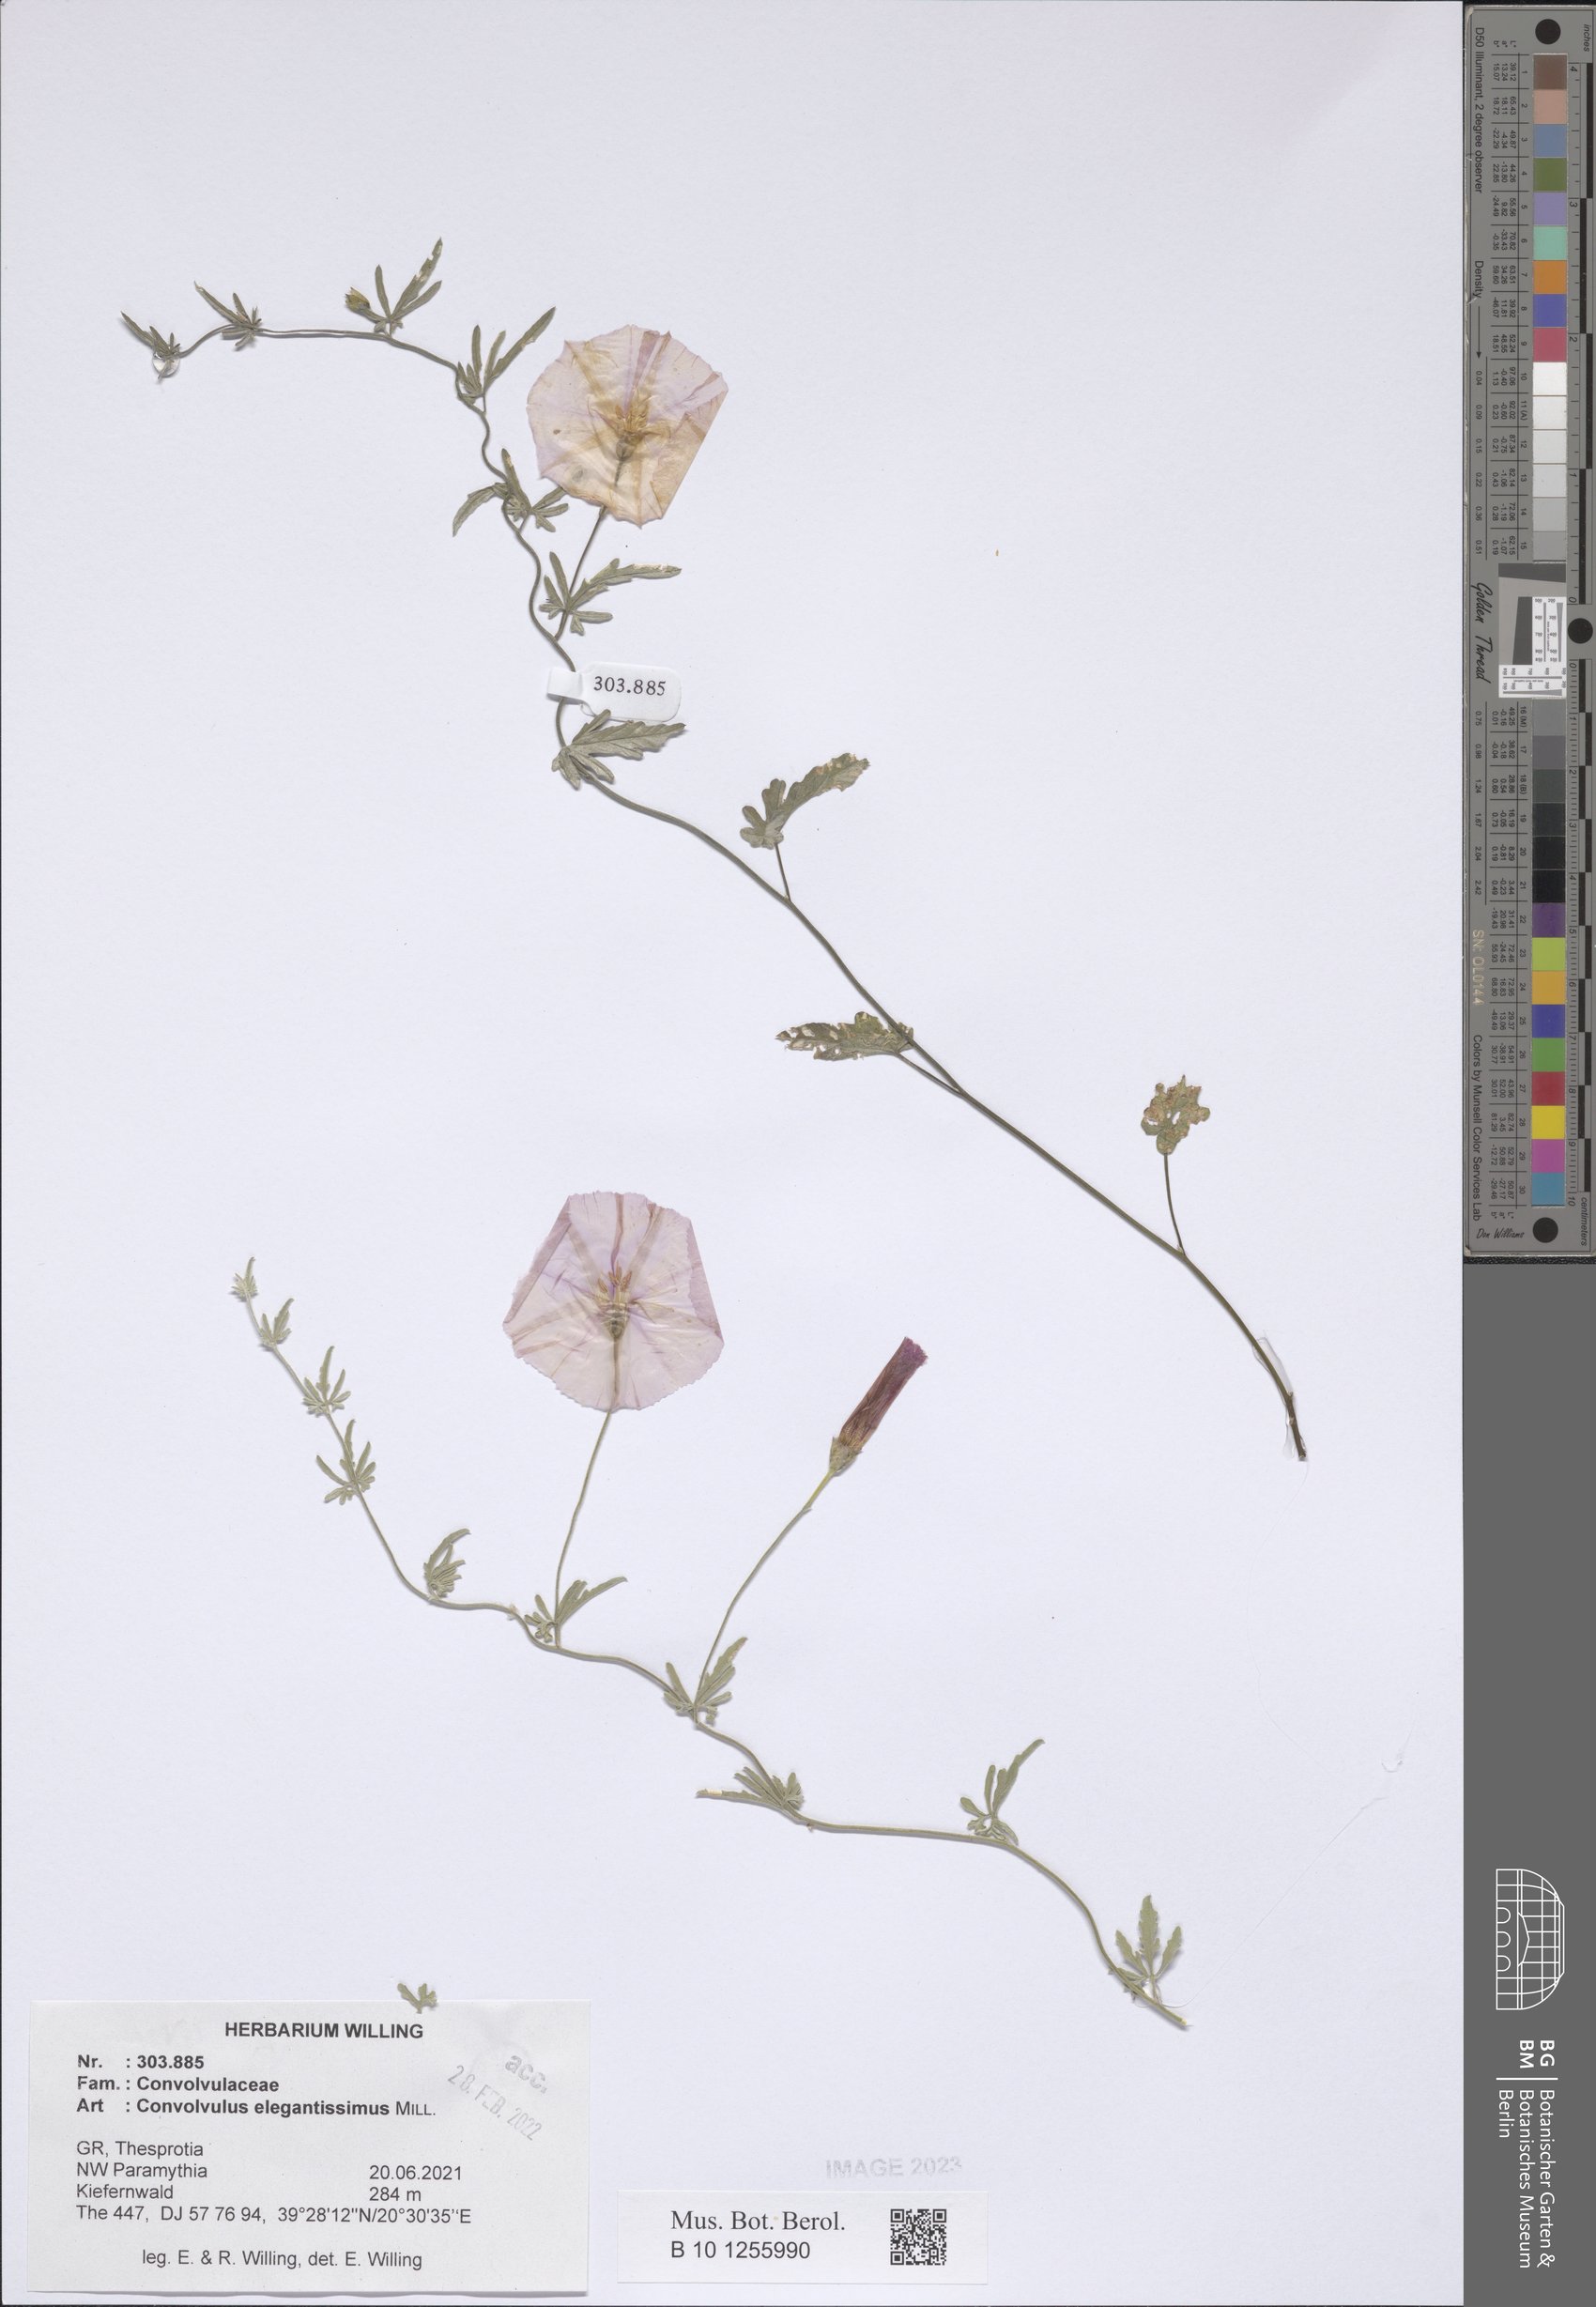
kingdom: Plantae
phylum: Tracheophyta
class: Magnoliopsida
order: Solanales
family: Convolvulaceae
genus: Convolvulus
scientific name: Convolvulus elegantissimus
